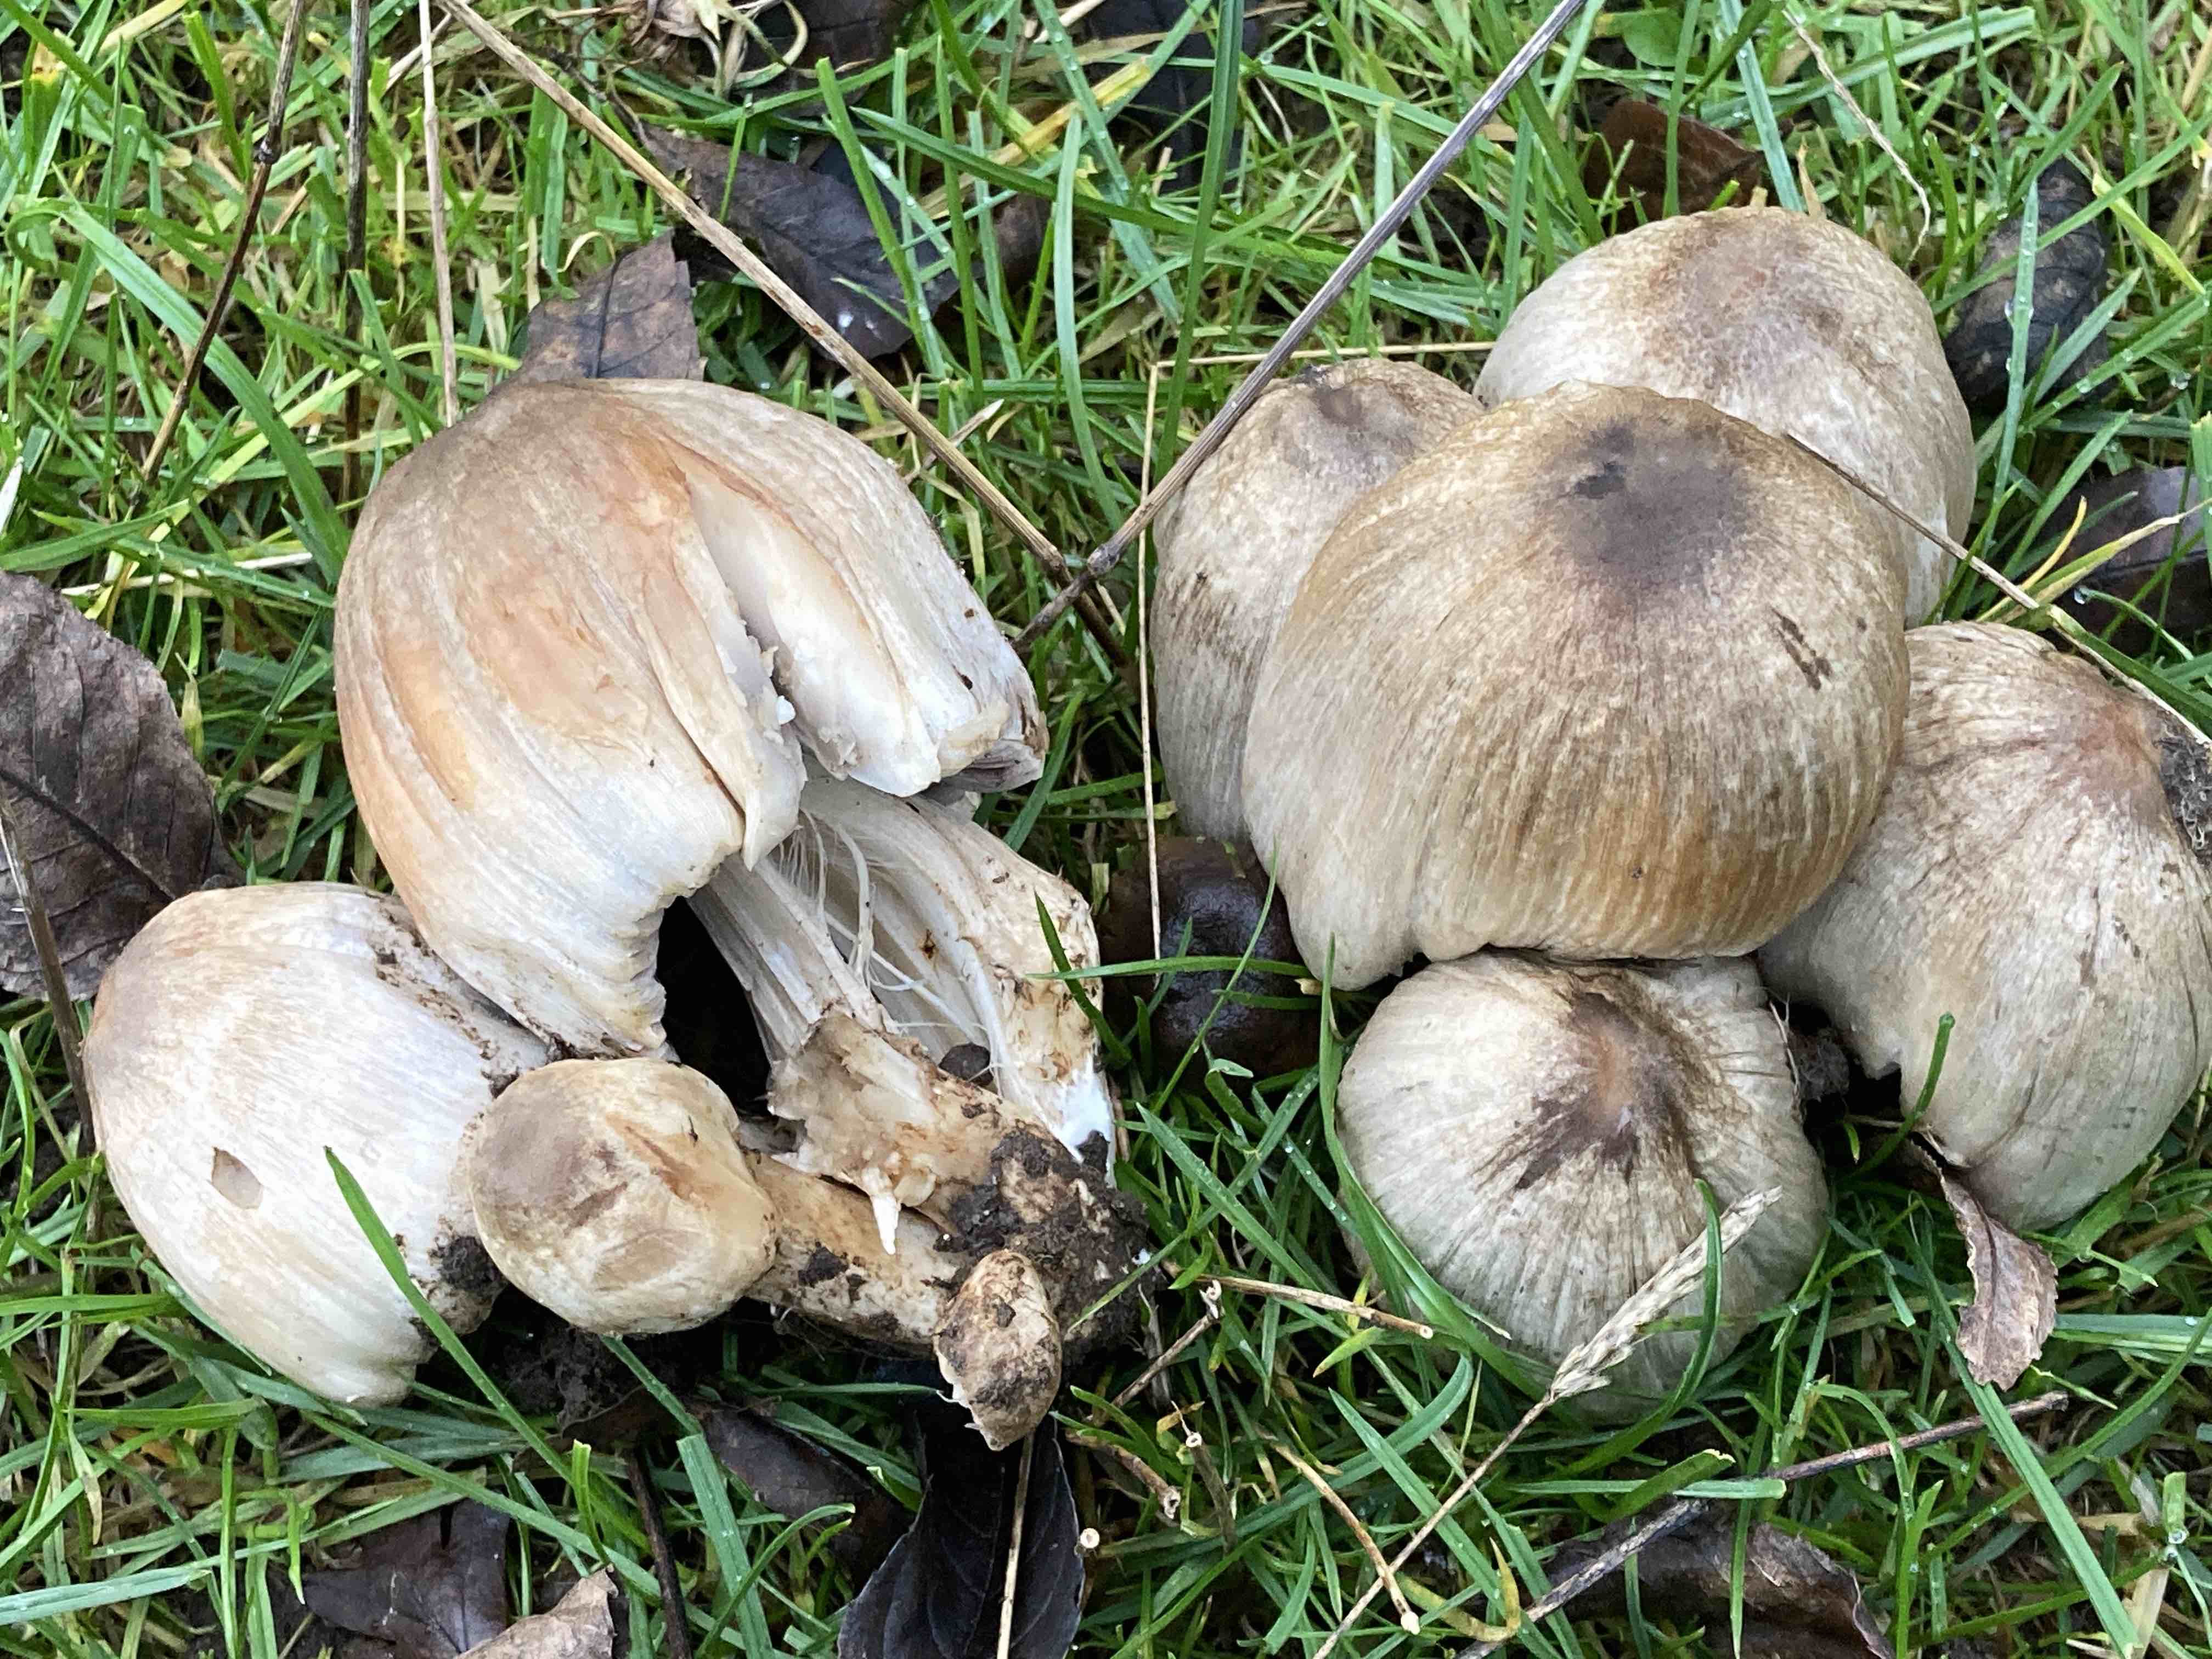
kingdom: Fungi
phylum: Basidiomycota
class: Agaricomycetes
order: Agaricales
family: Psathyrellaceae
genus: Coprinopsis
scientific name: Coprinopsis atramentaria
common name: almindelig blækhat
